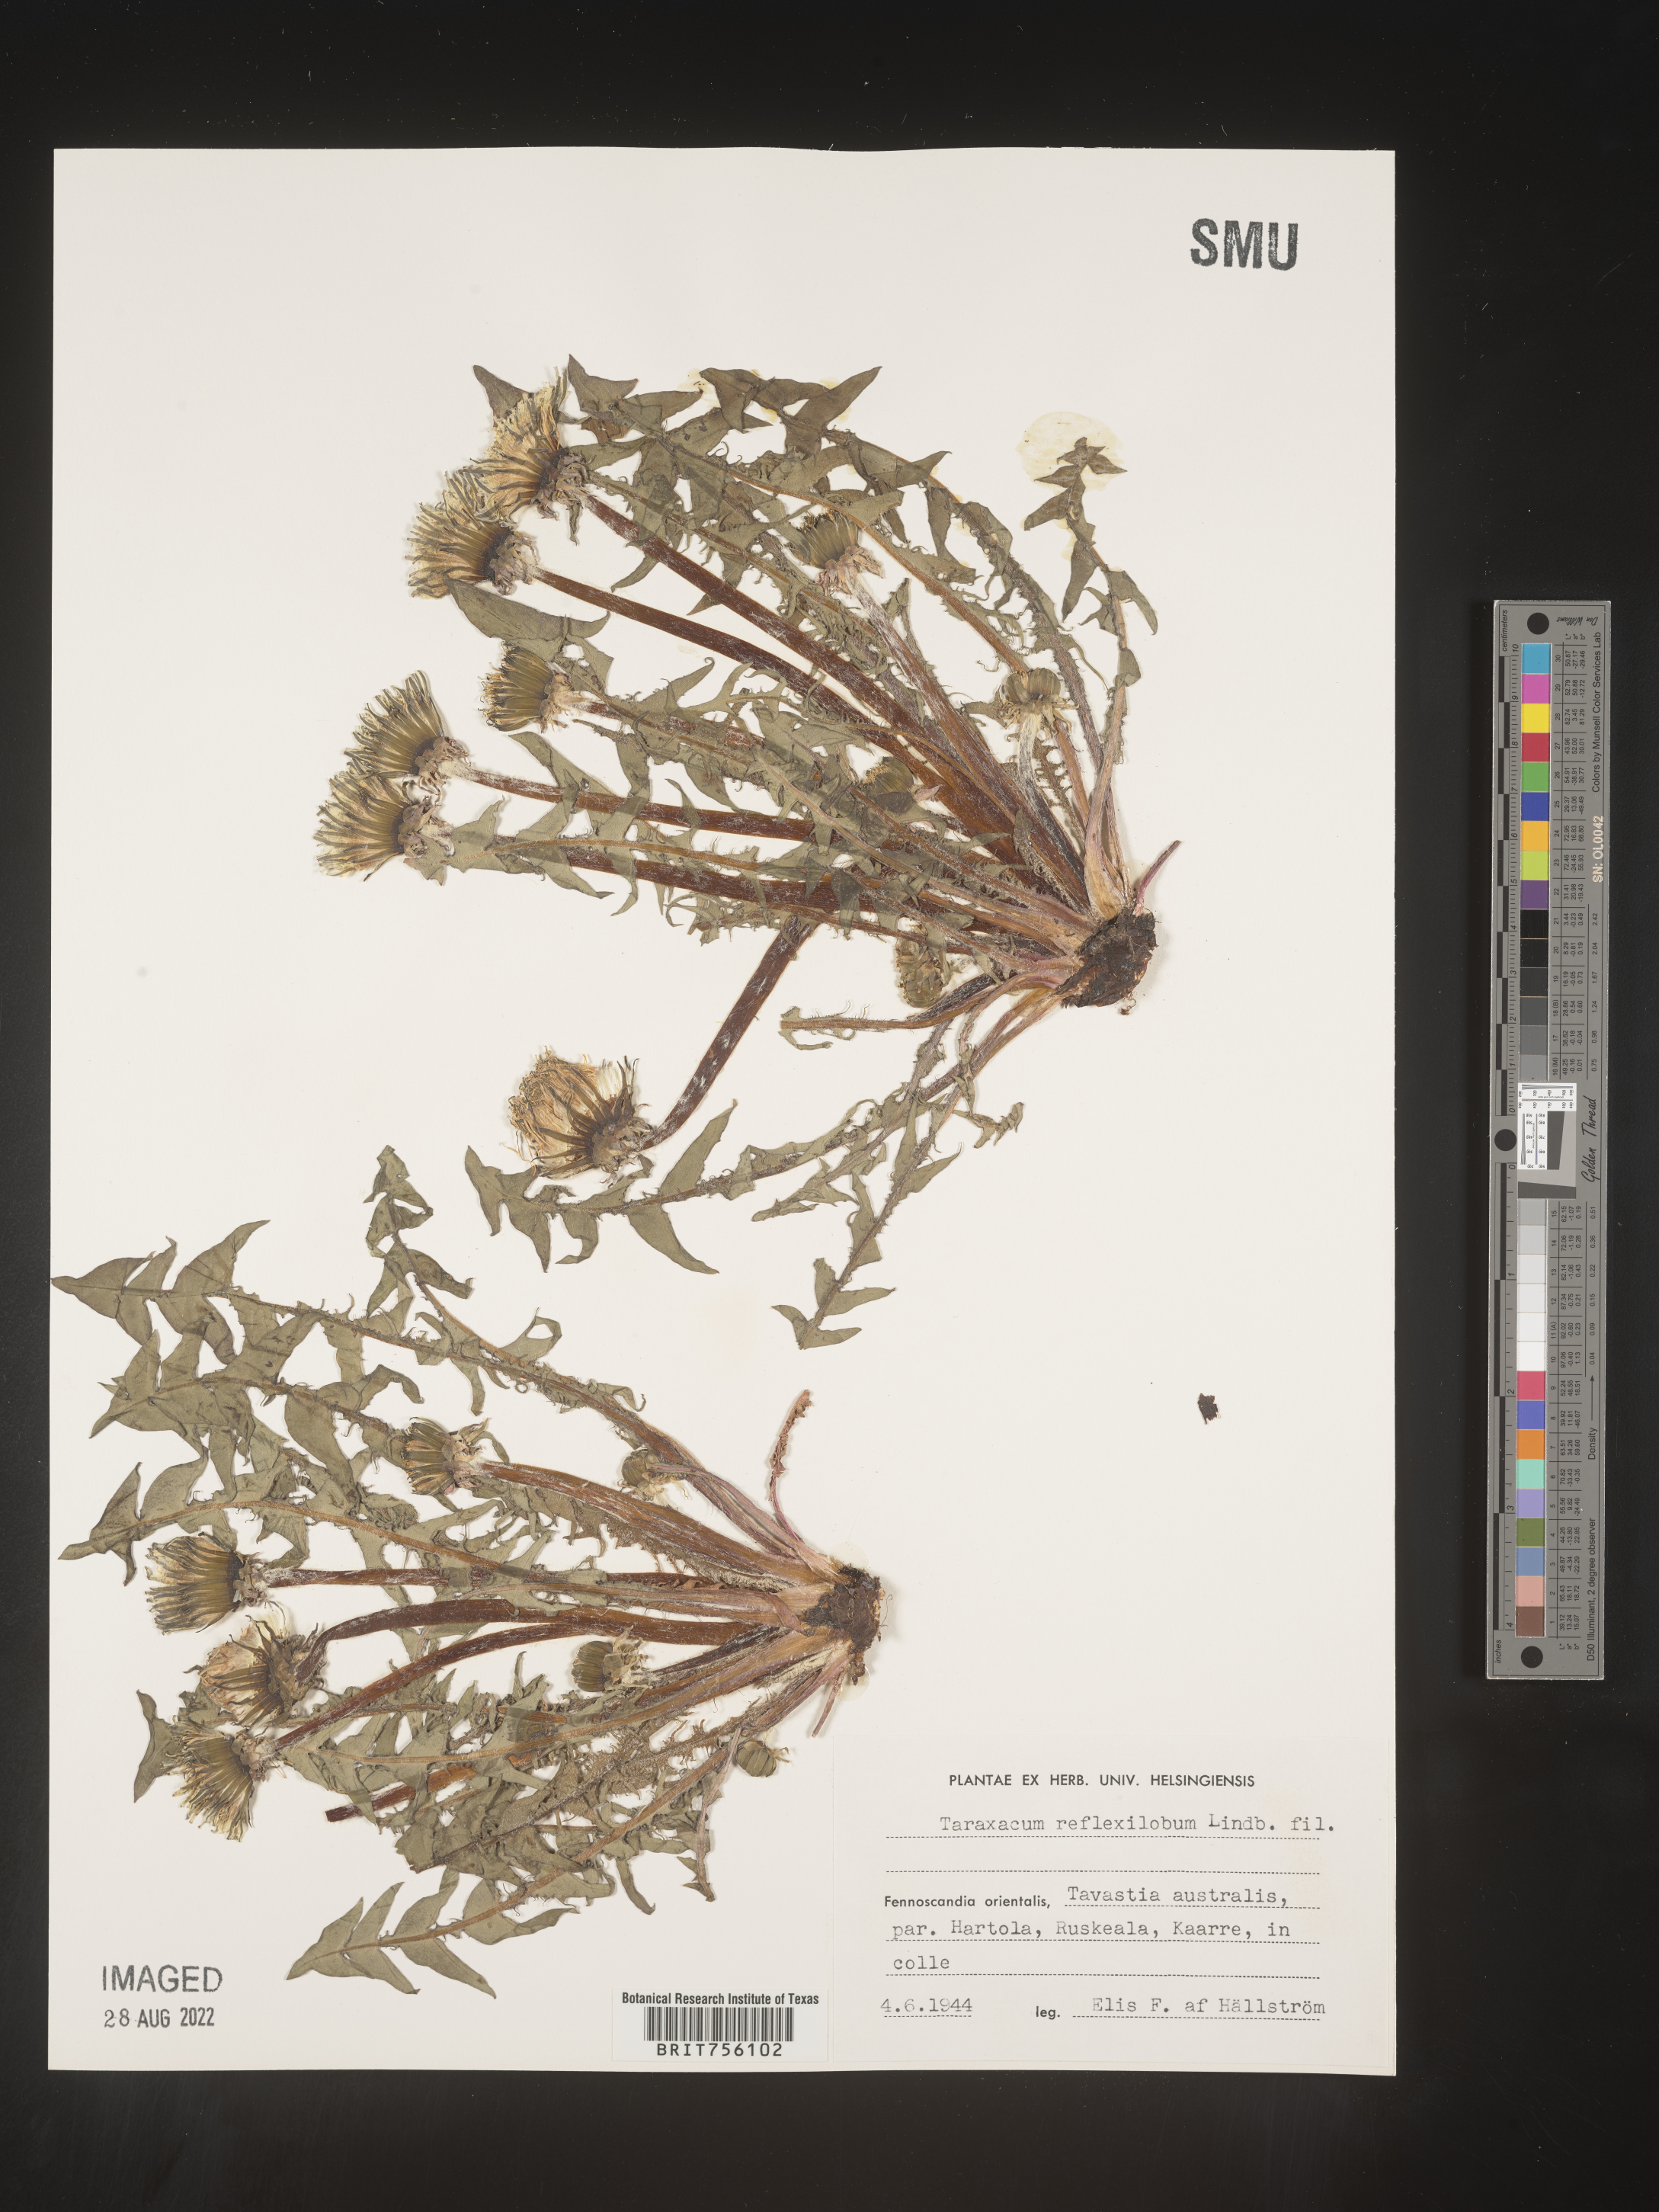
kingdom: Plantae
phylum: Tracheophyta
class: Magnoliopsida
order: Asterales
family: Asteraceae
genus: Taraxacum
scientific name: Taraxacum
